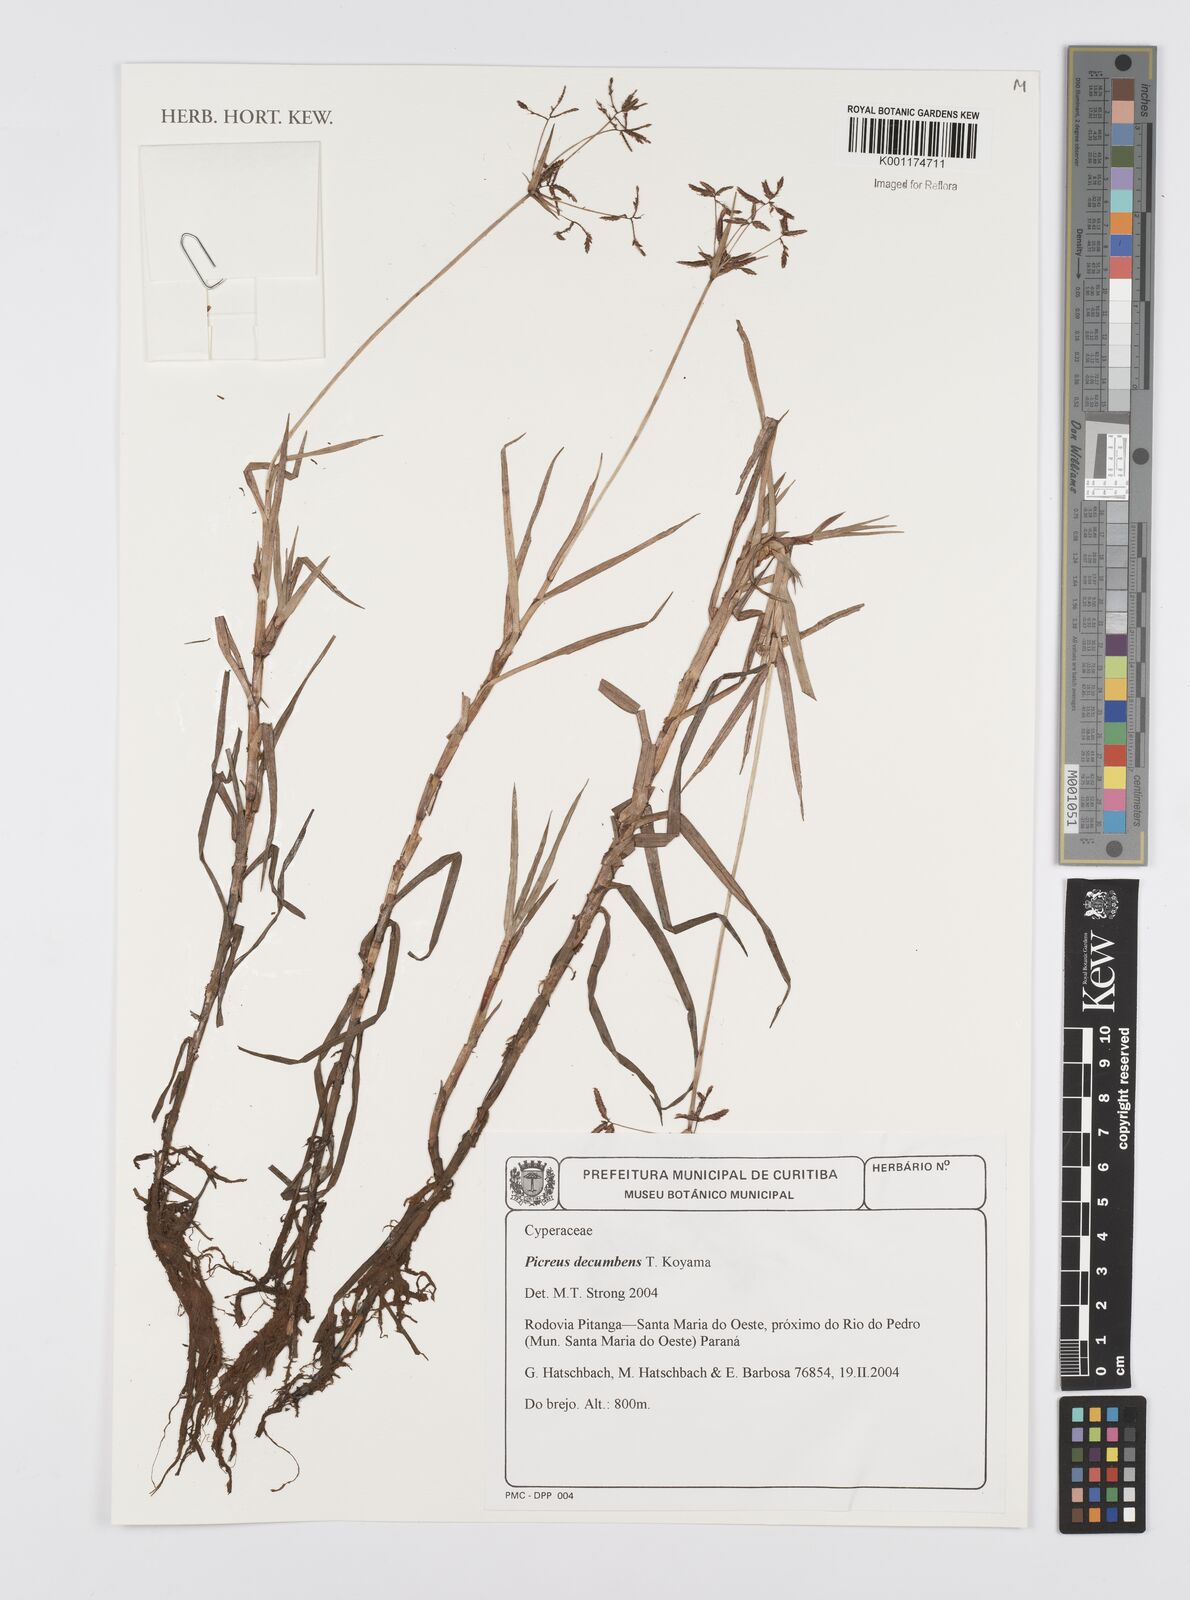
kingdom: Plantae
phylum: Tracheophyta
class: Liliopsida
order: Poales
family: Cyperaceae
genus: Cyperus
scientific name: Cyperus malabaricus
